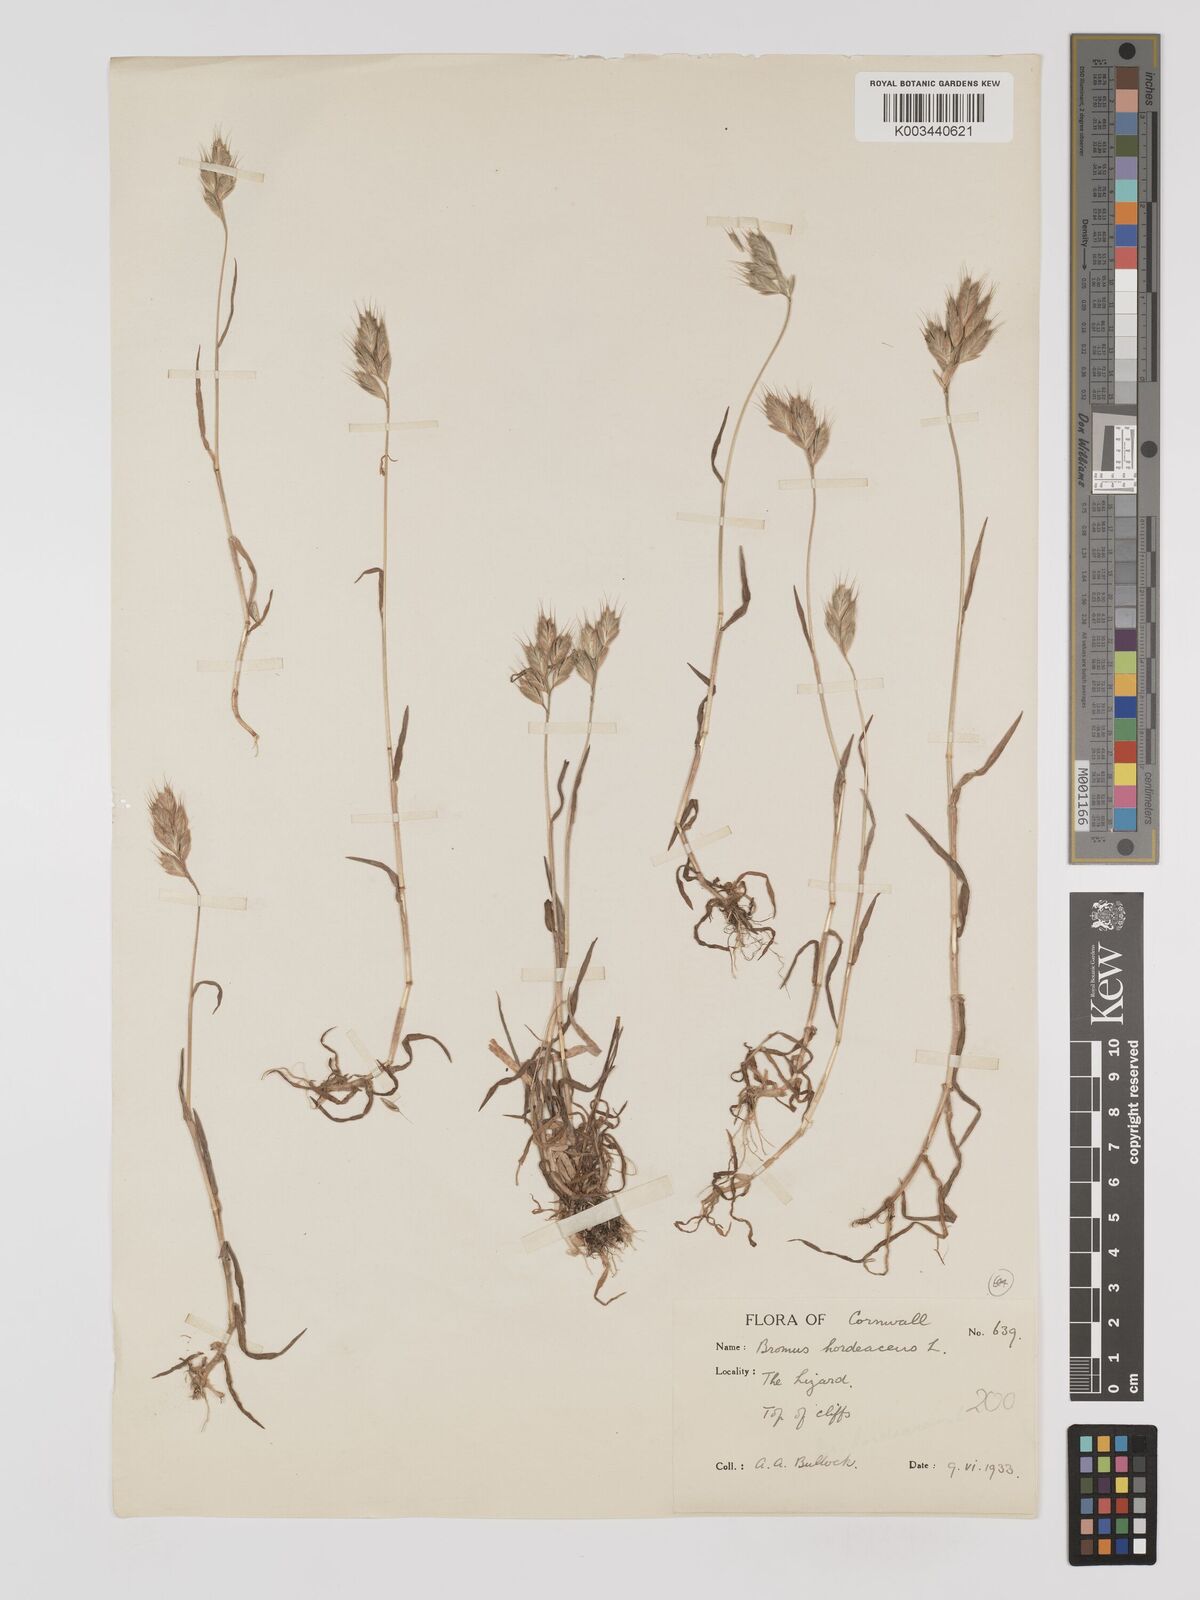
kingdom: Plantae
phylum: Tracheophyta
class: Liliopsida
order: Poales
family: Poaceae
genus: Bromus
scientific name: Bromus hordeaceus
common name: Soft brome
